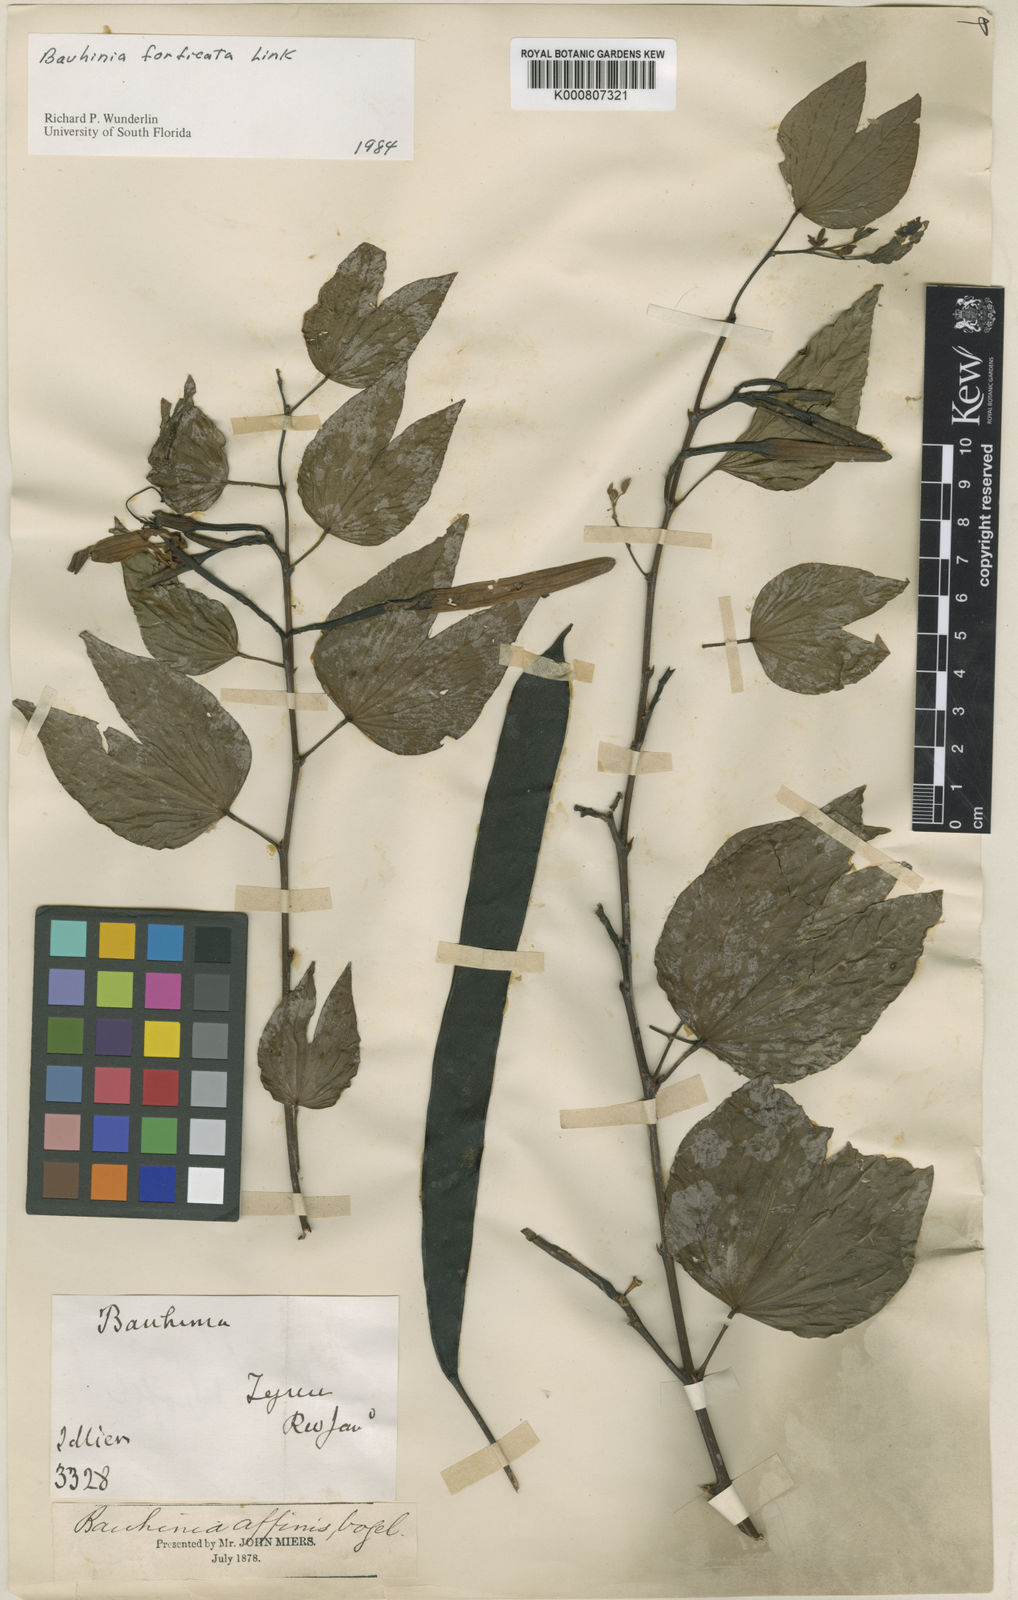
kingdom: Plantae
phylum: Tracheophyta
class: Magnoliopsida
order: Fabales
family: Fabaceae
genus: Bauhinia
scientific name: Bauhinia forficata
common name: Orchid tree
